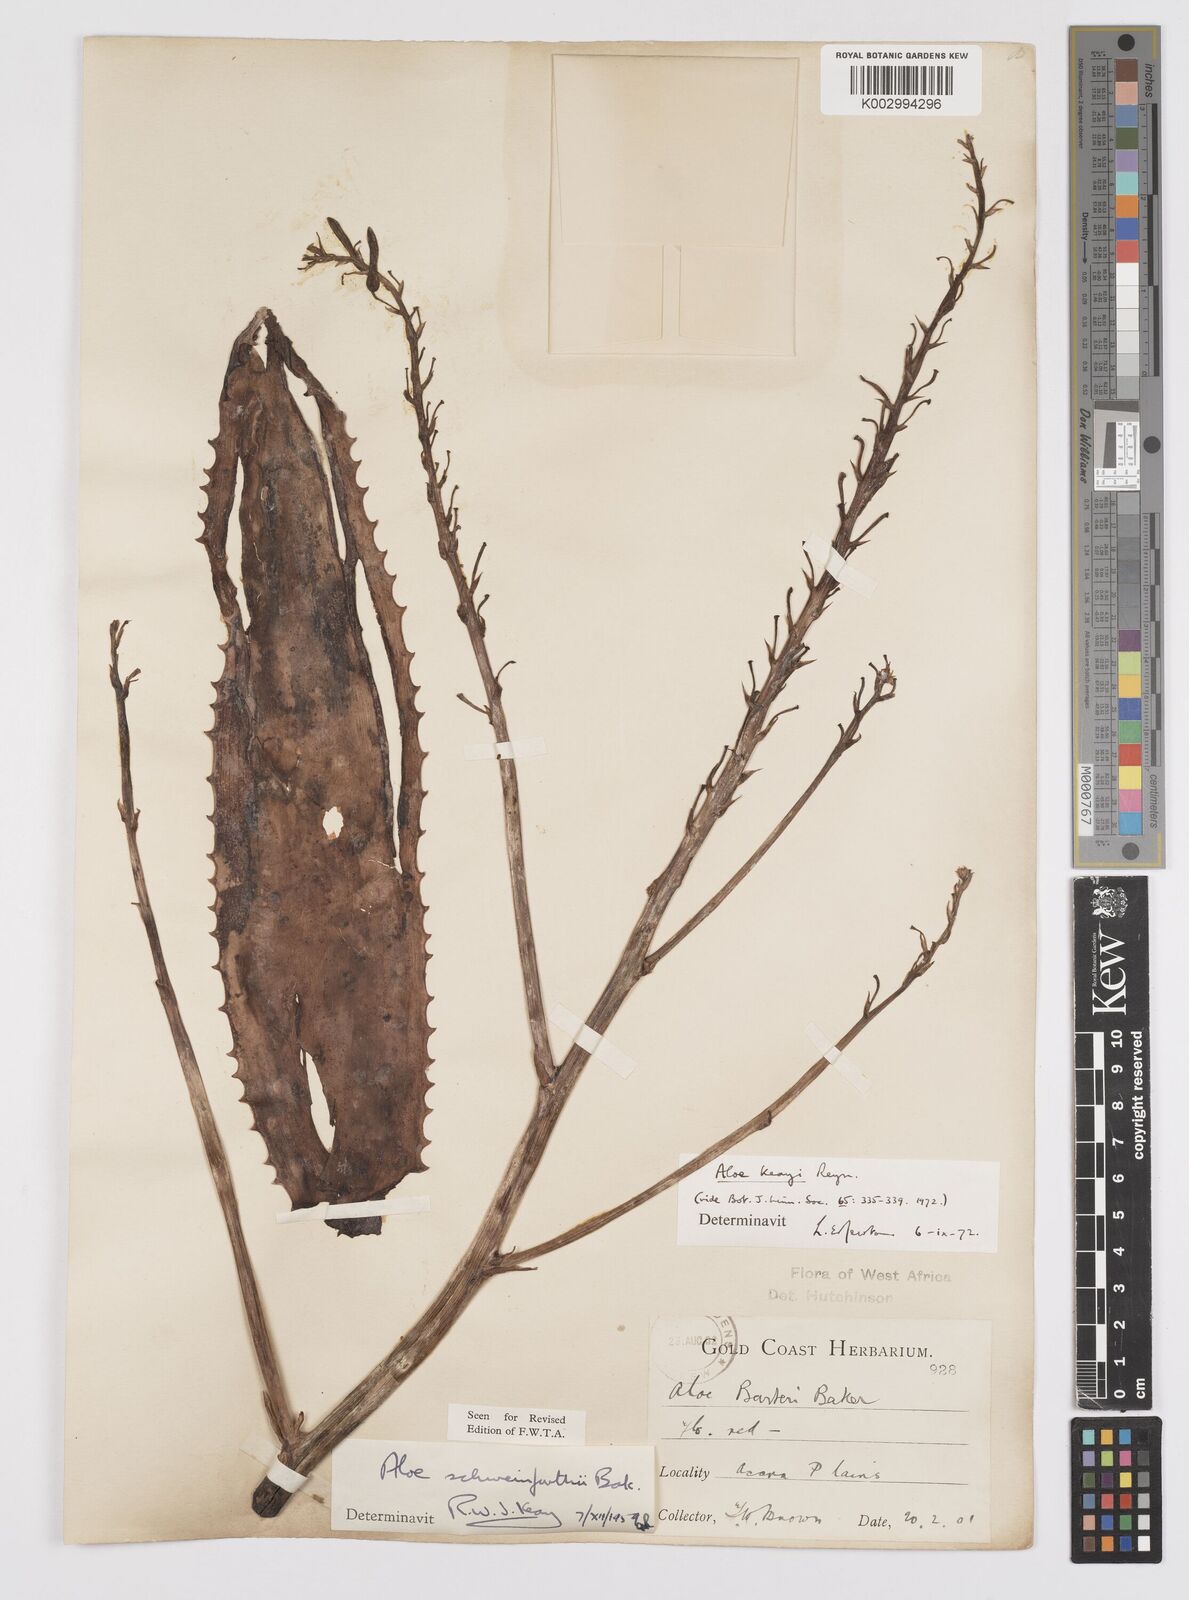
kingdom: Plantae
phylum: Tracheophyta
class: Liliopsida
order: Asparagales
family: Asphodelaceae
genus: Aloe
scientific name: Aloe keayi
